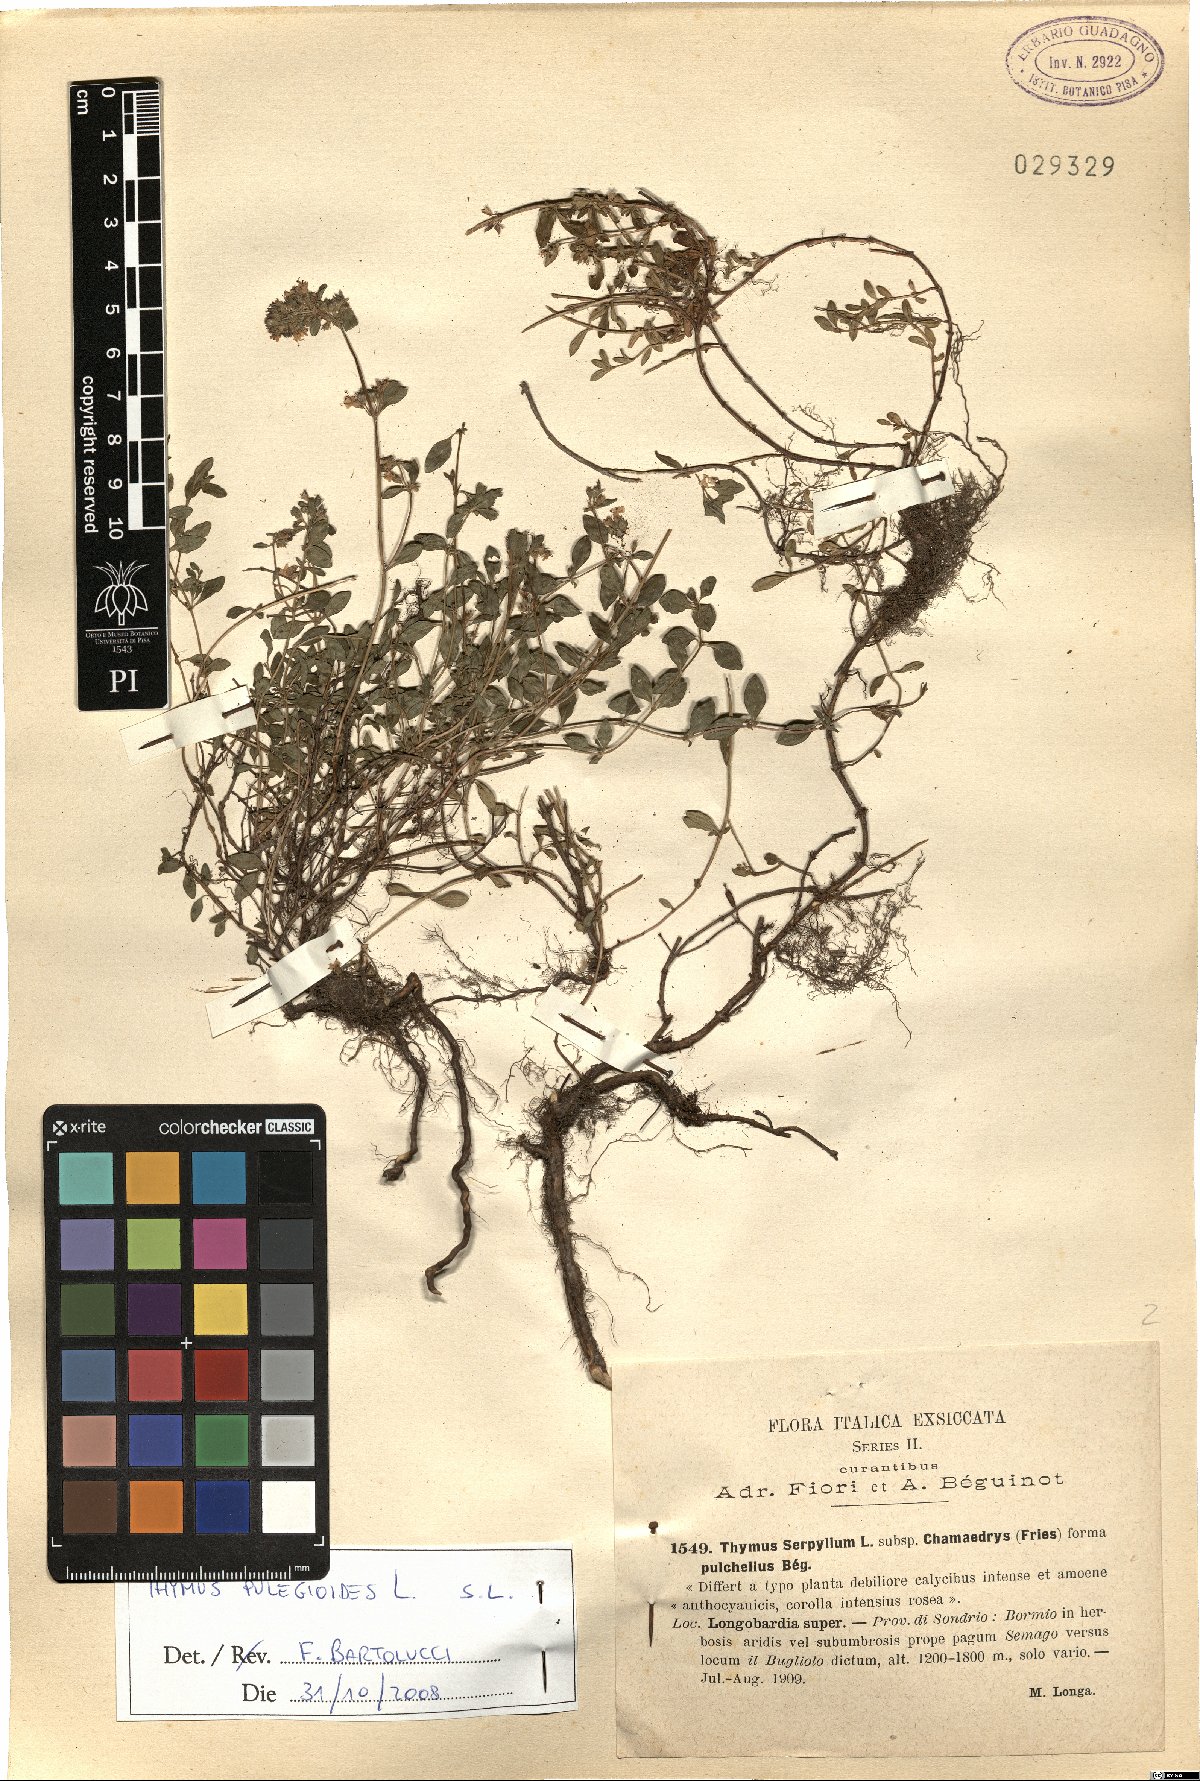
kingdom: Plantae
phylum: Tracheophyta
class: Magnoliopsida
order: Lamiales
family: Lamiaceae
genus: Thymus
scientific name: Thymus pulegioides
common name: Large thyme
